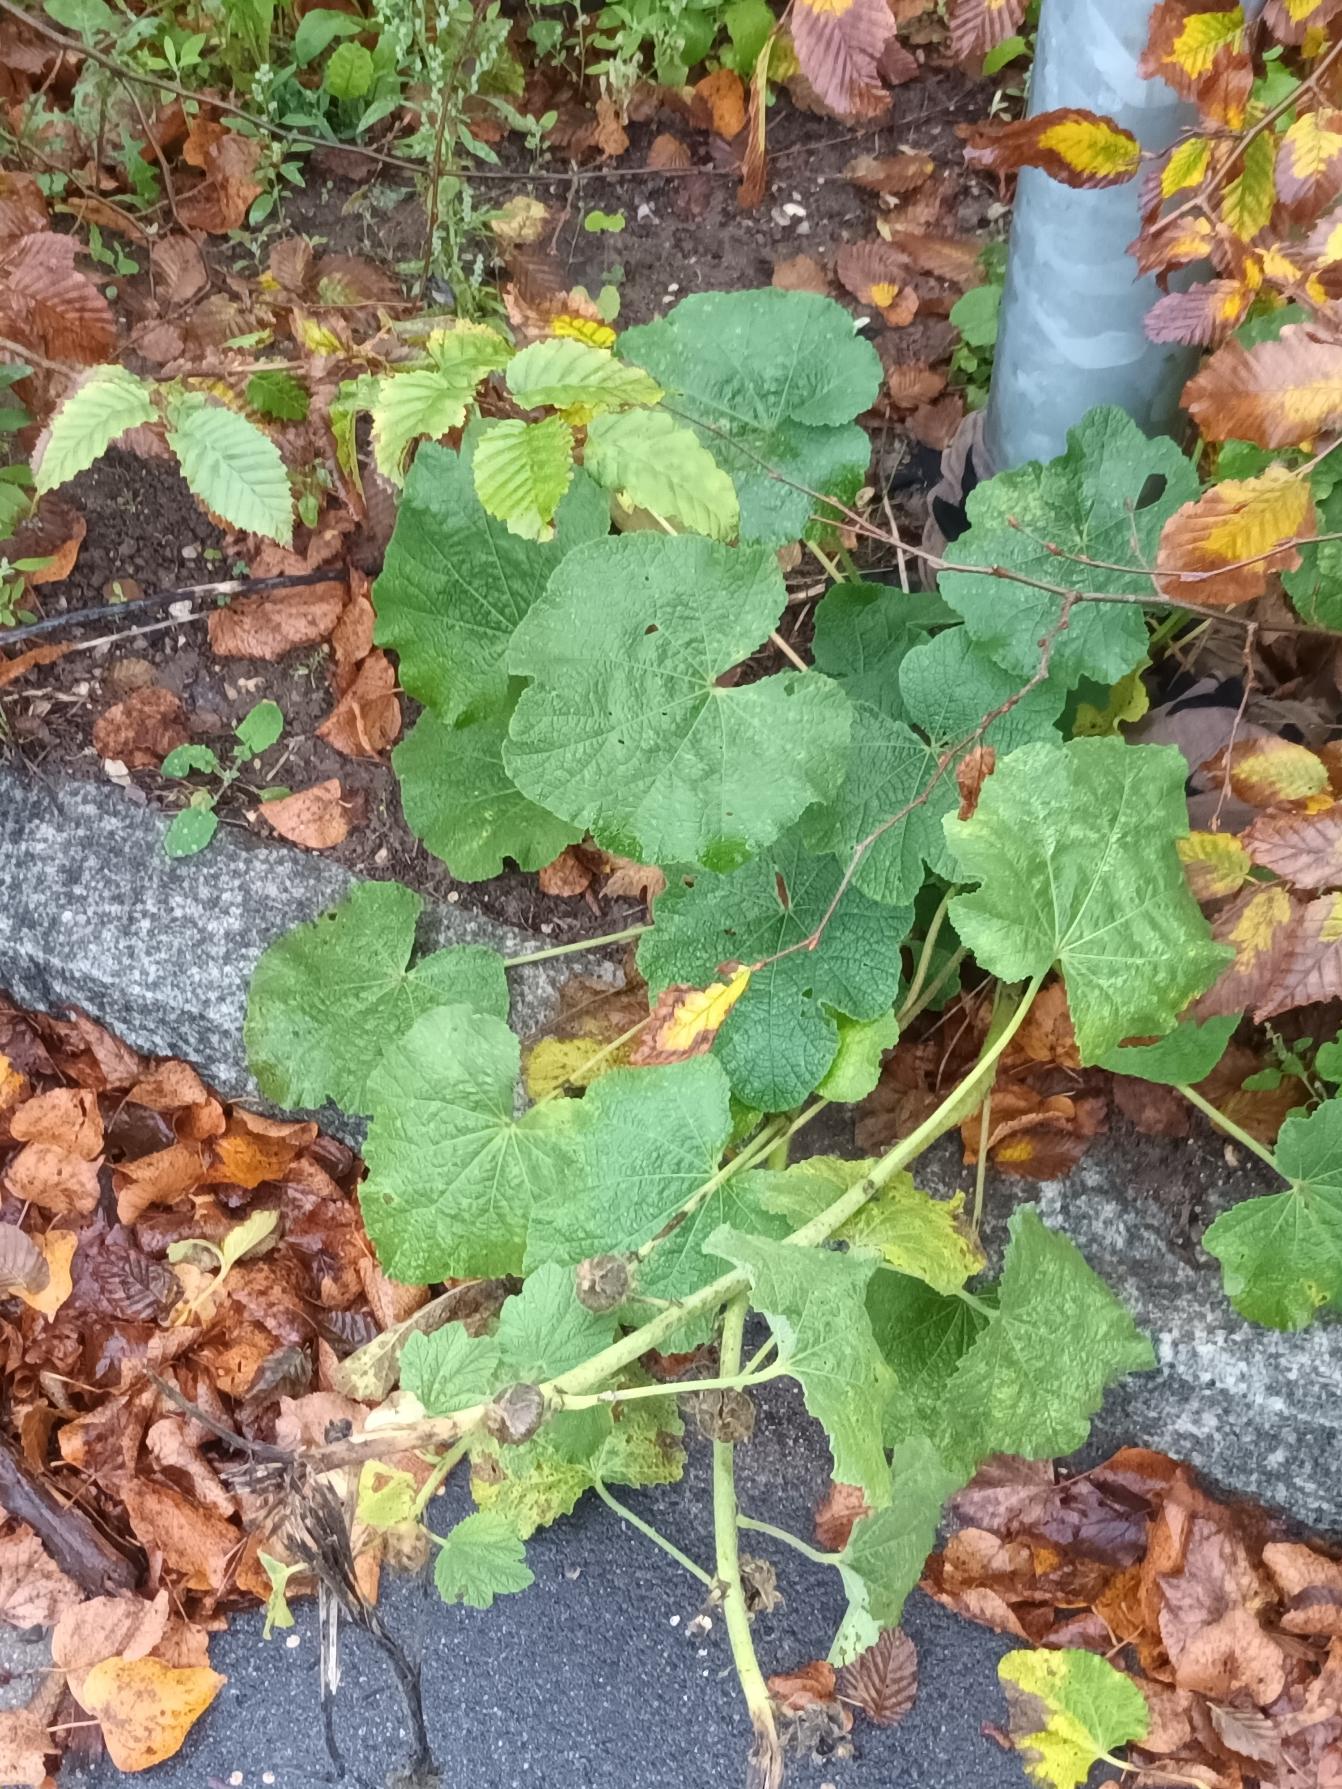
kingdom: Plantae
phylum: Tracheophyta
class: Magnoliopsida
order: Malvales
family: Malvaceae
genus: Alcea
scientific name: Alcea rosea
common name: Have-stokrose
